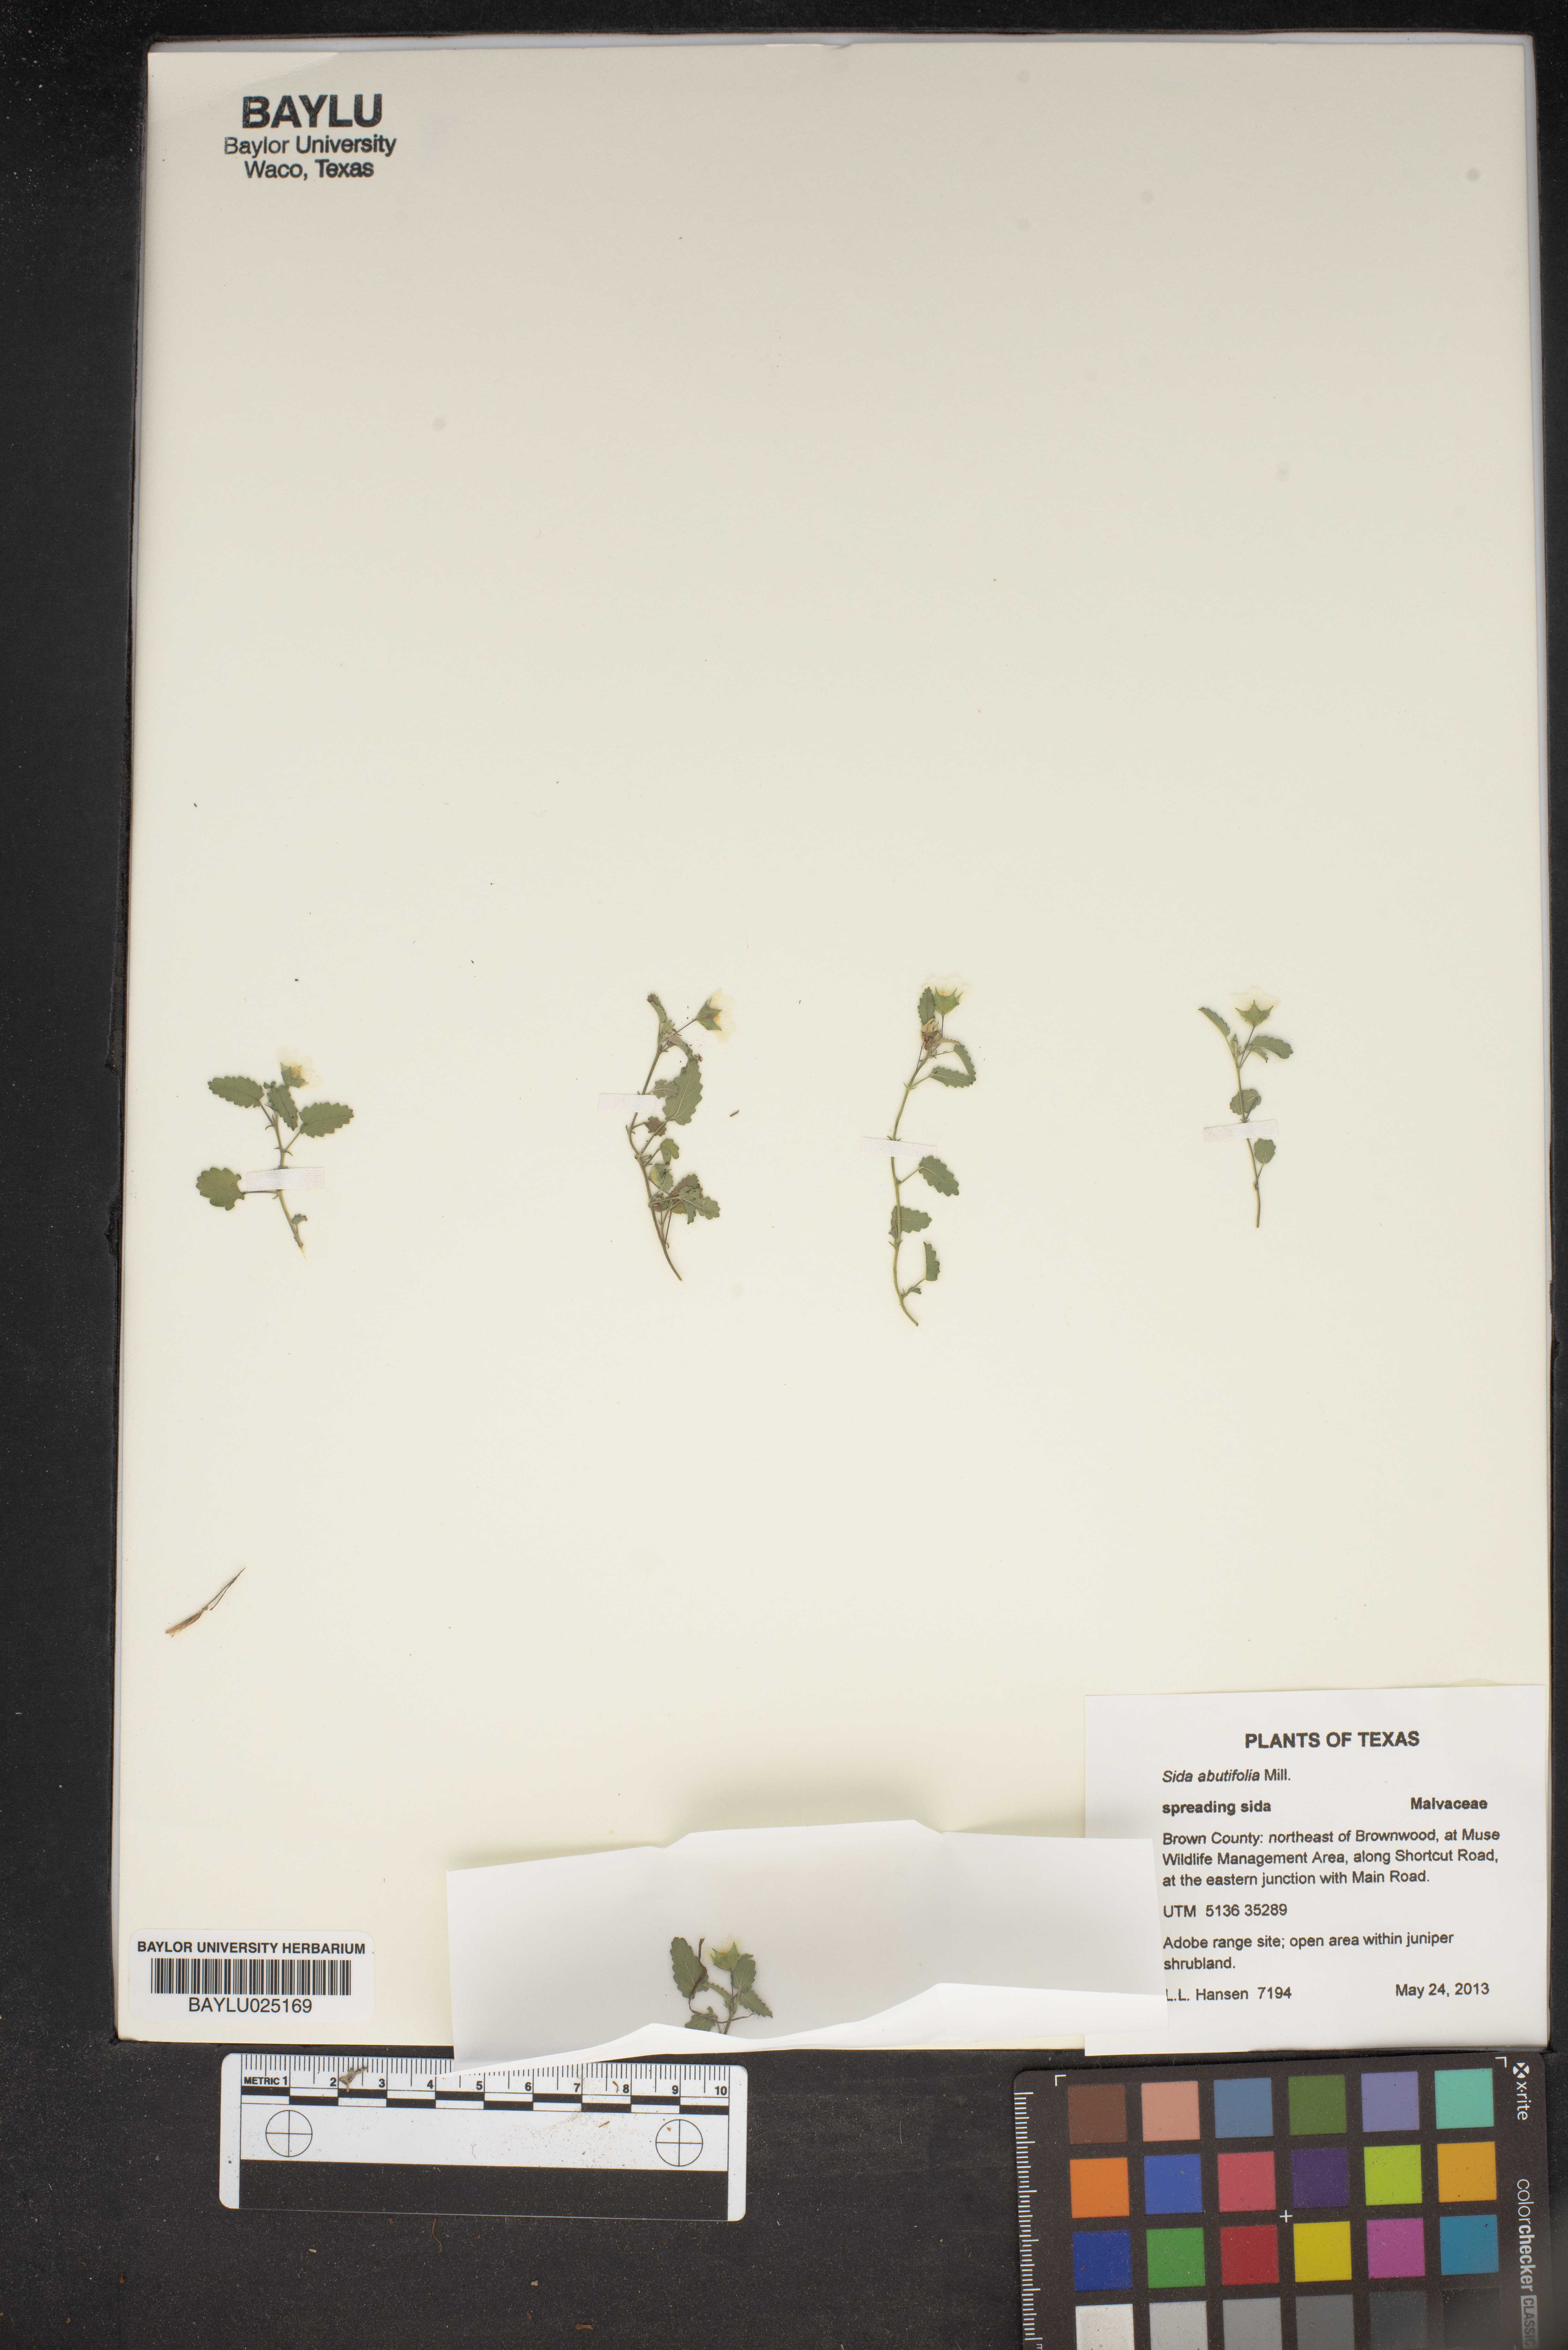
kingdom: Plantae
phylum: Tracheophyta
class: Magnoliopsida
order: Malvales
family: Malvaceae
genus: Sida
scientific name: Sida abutifolia
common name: Spreading fantails
